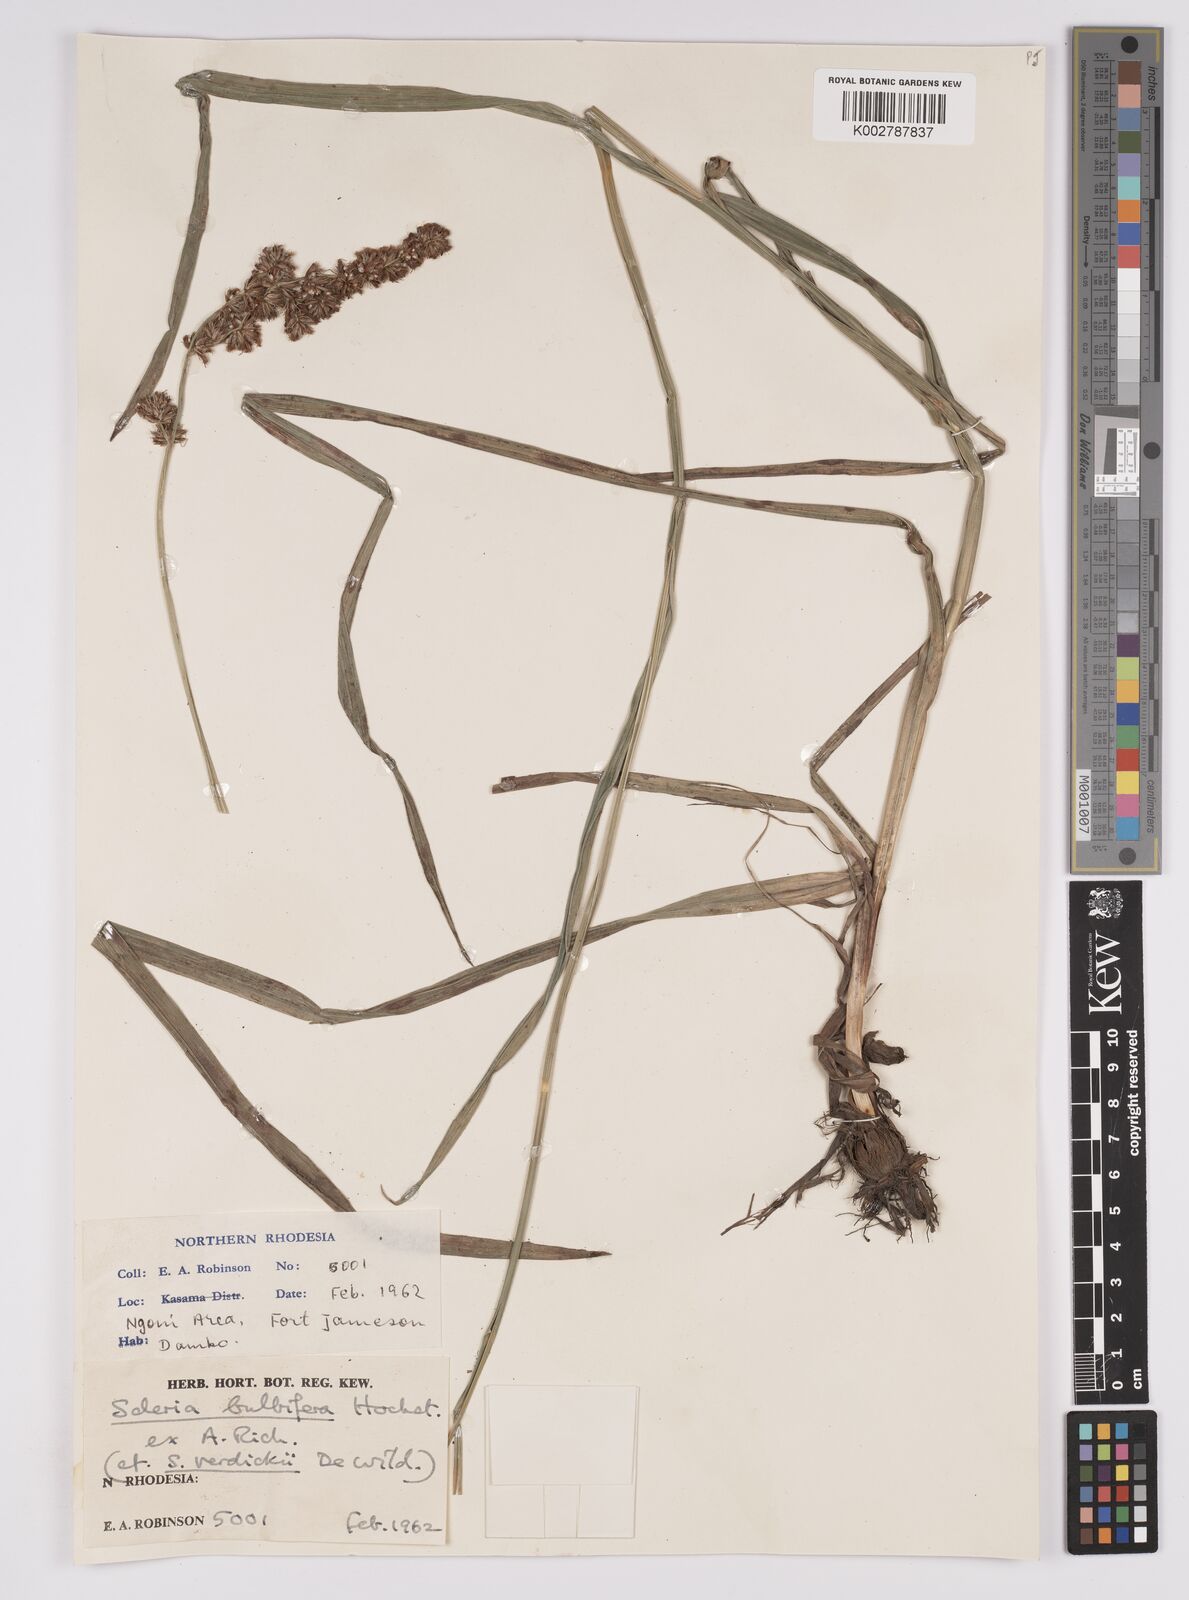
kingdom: Plantae
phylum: Tracheophyta
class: Liliopsida
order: Poales
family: Cyperaceae
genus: Scleria
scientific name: Scleria bulbifera
